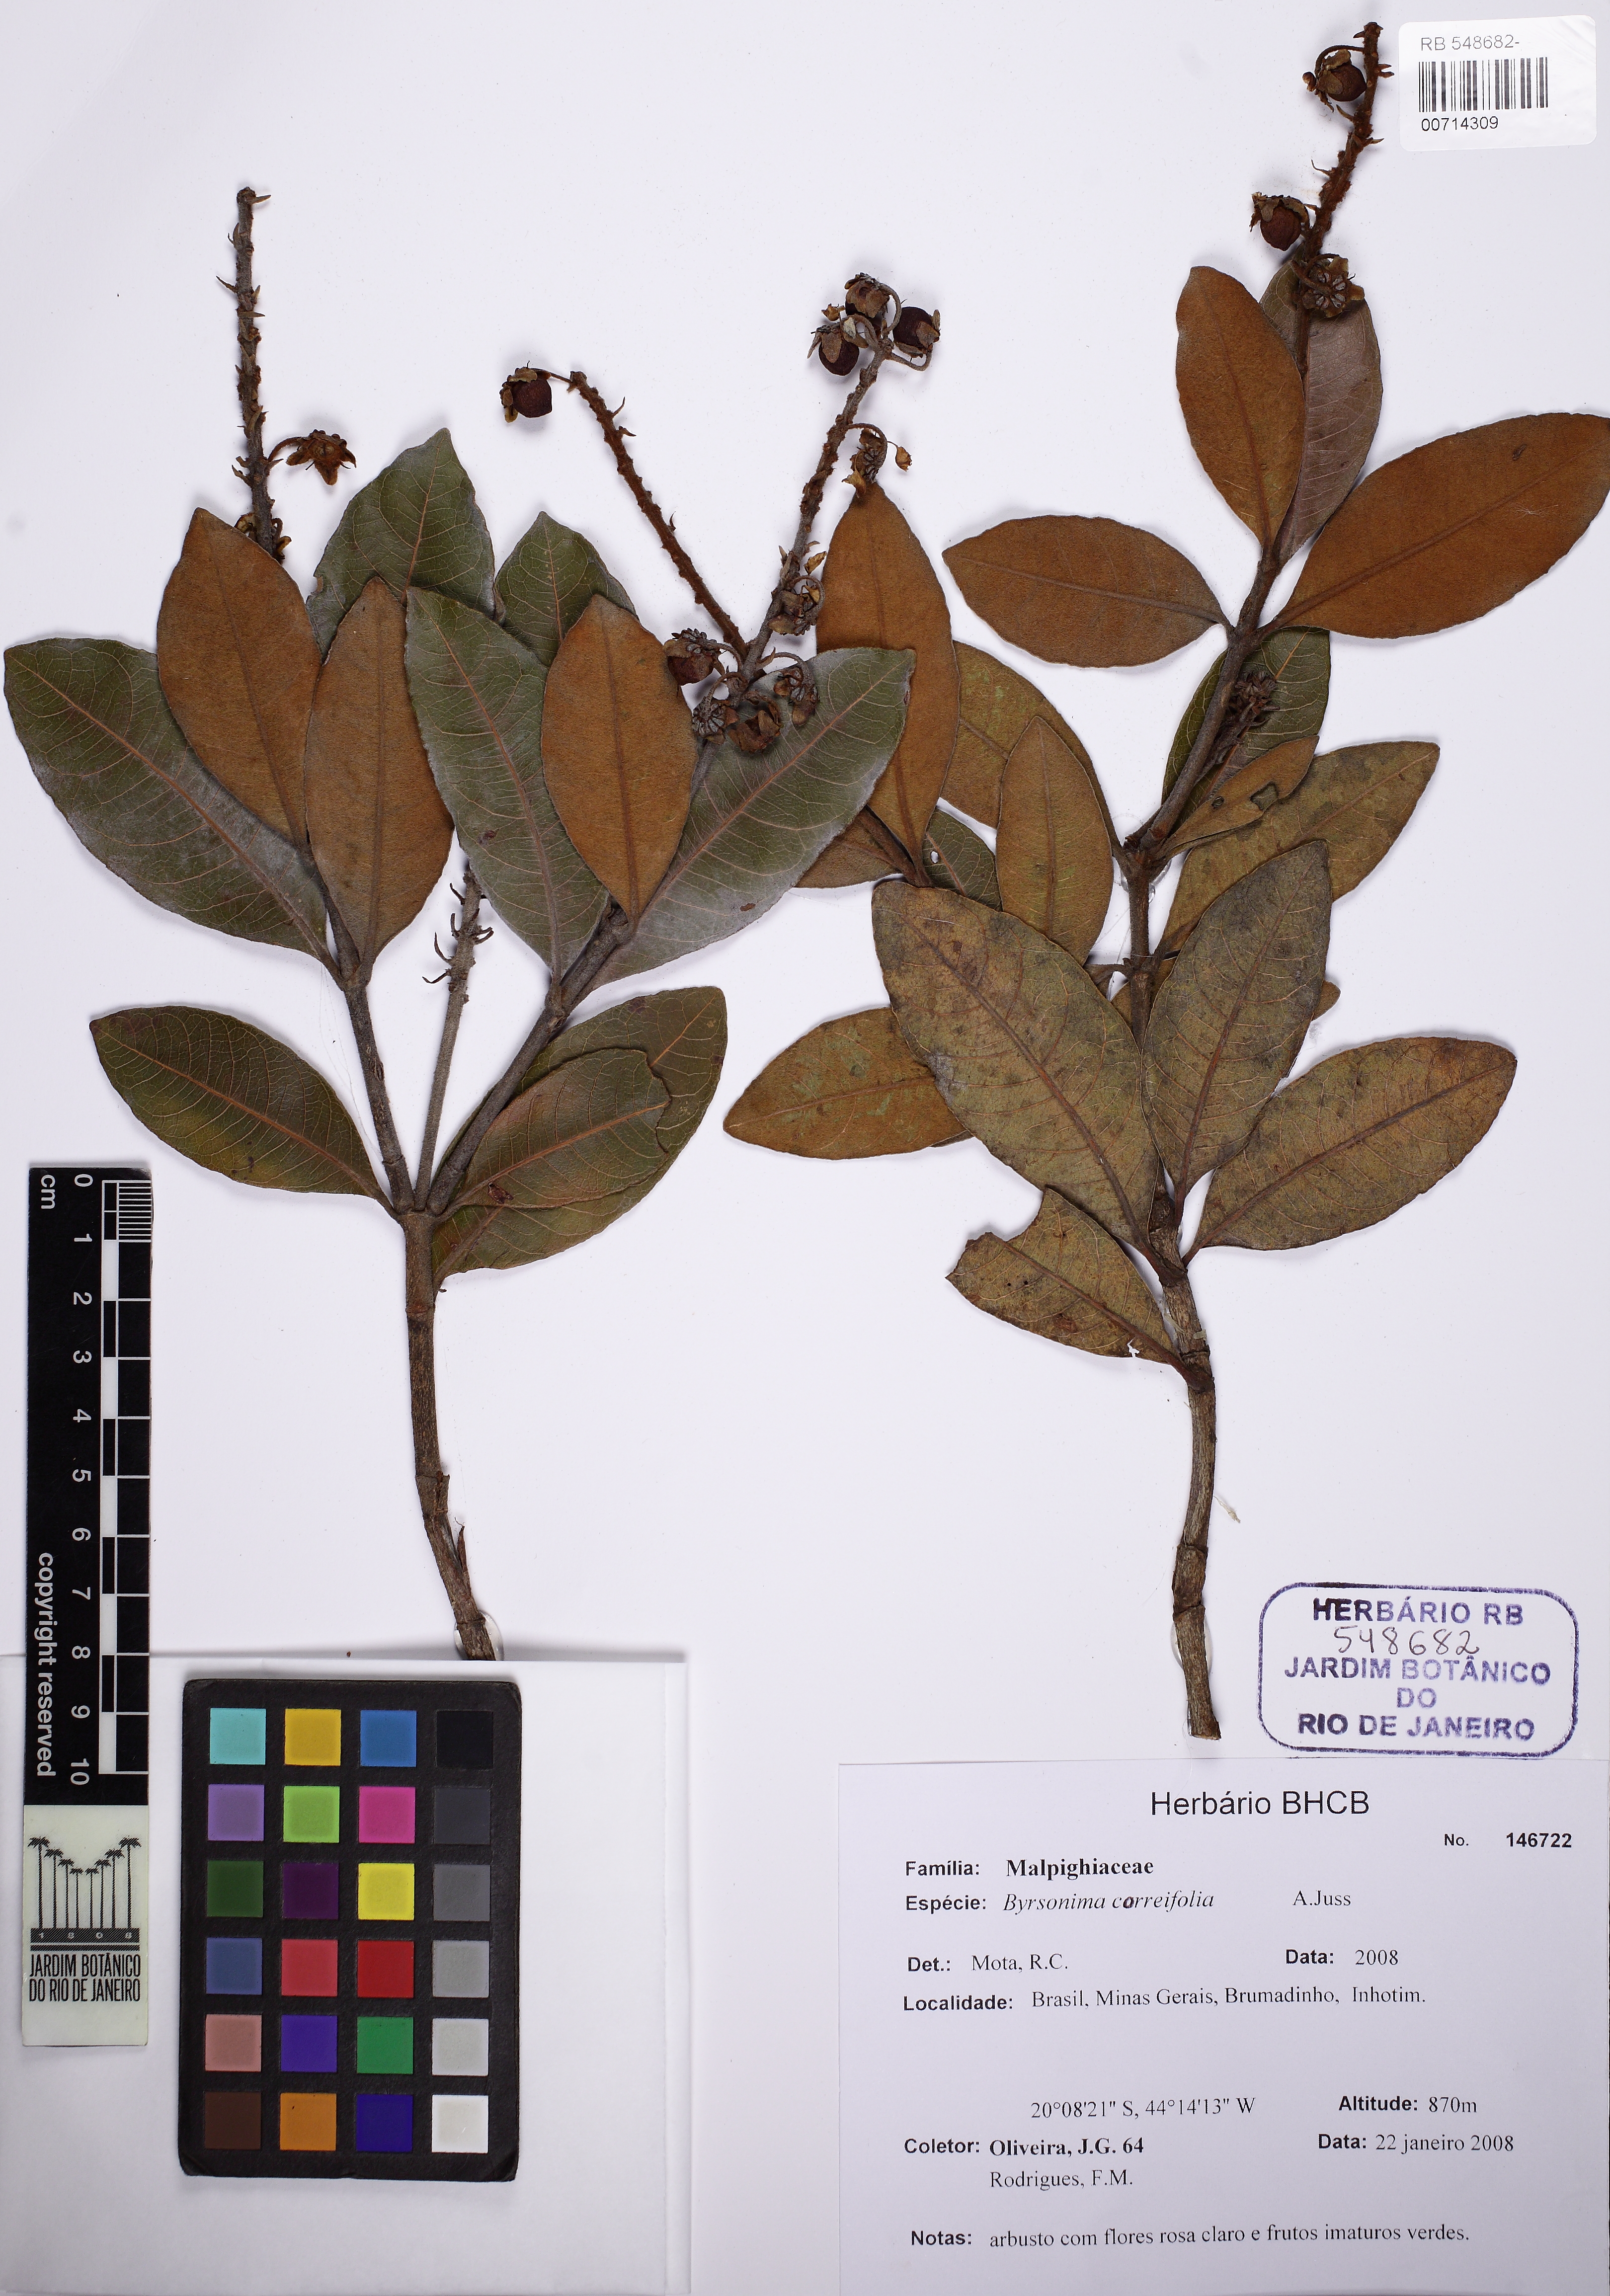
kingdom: Plantae
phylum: Tracheophyta
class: Magnoliopsida
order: Malpighiales
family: Malpighiaceae
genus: Byrsonima
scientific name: Byrsonima correifolia
